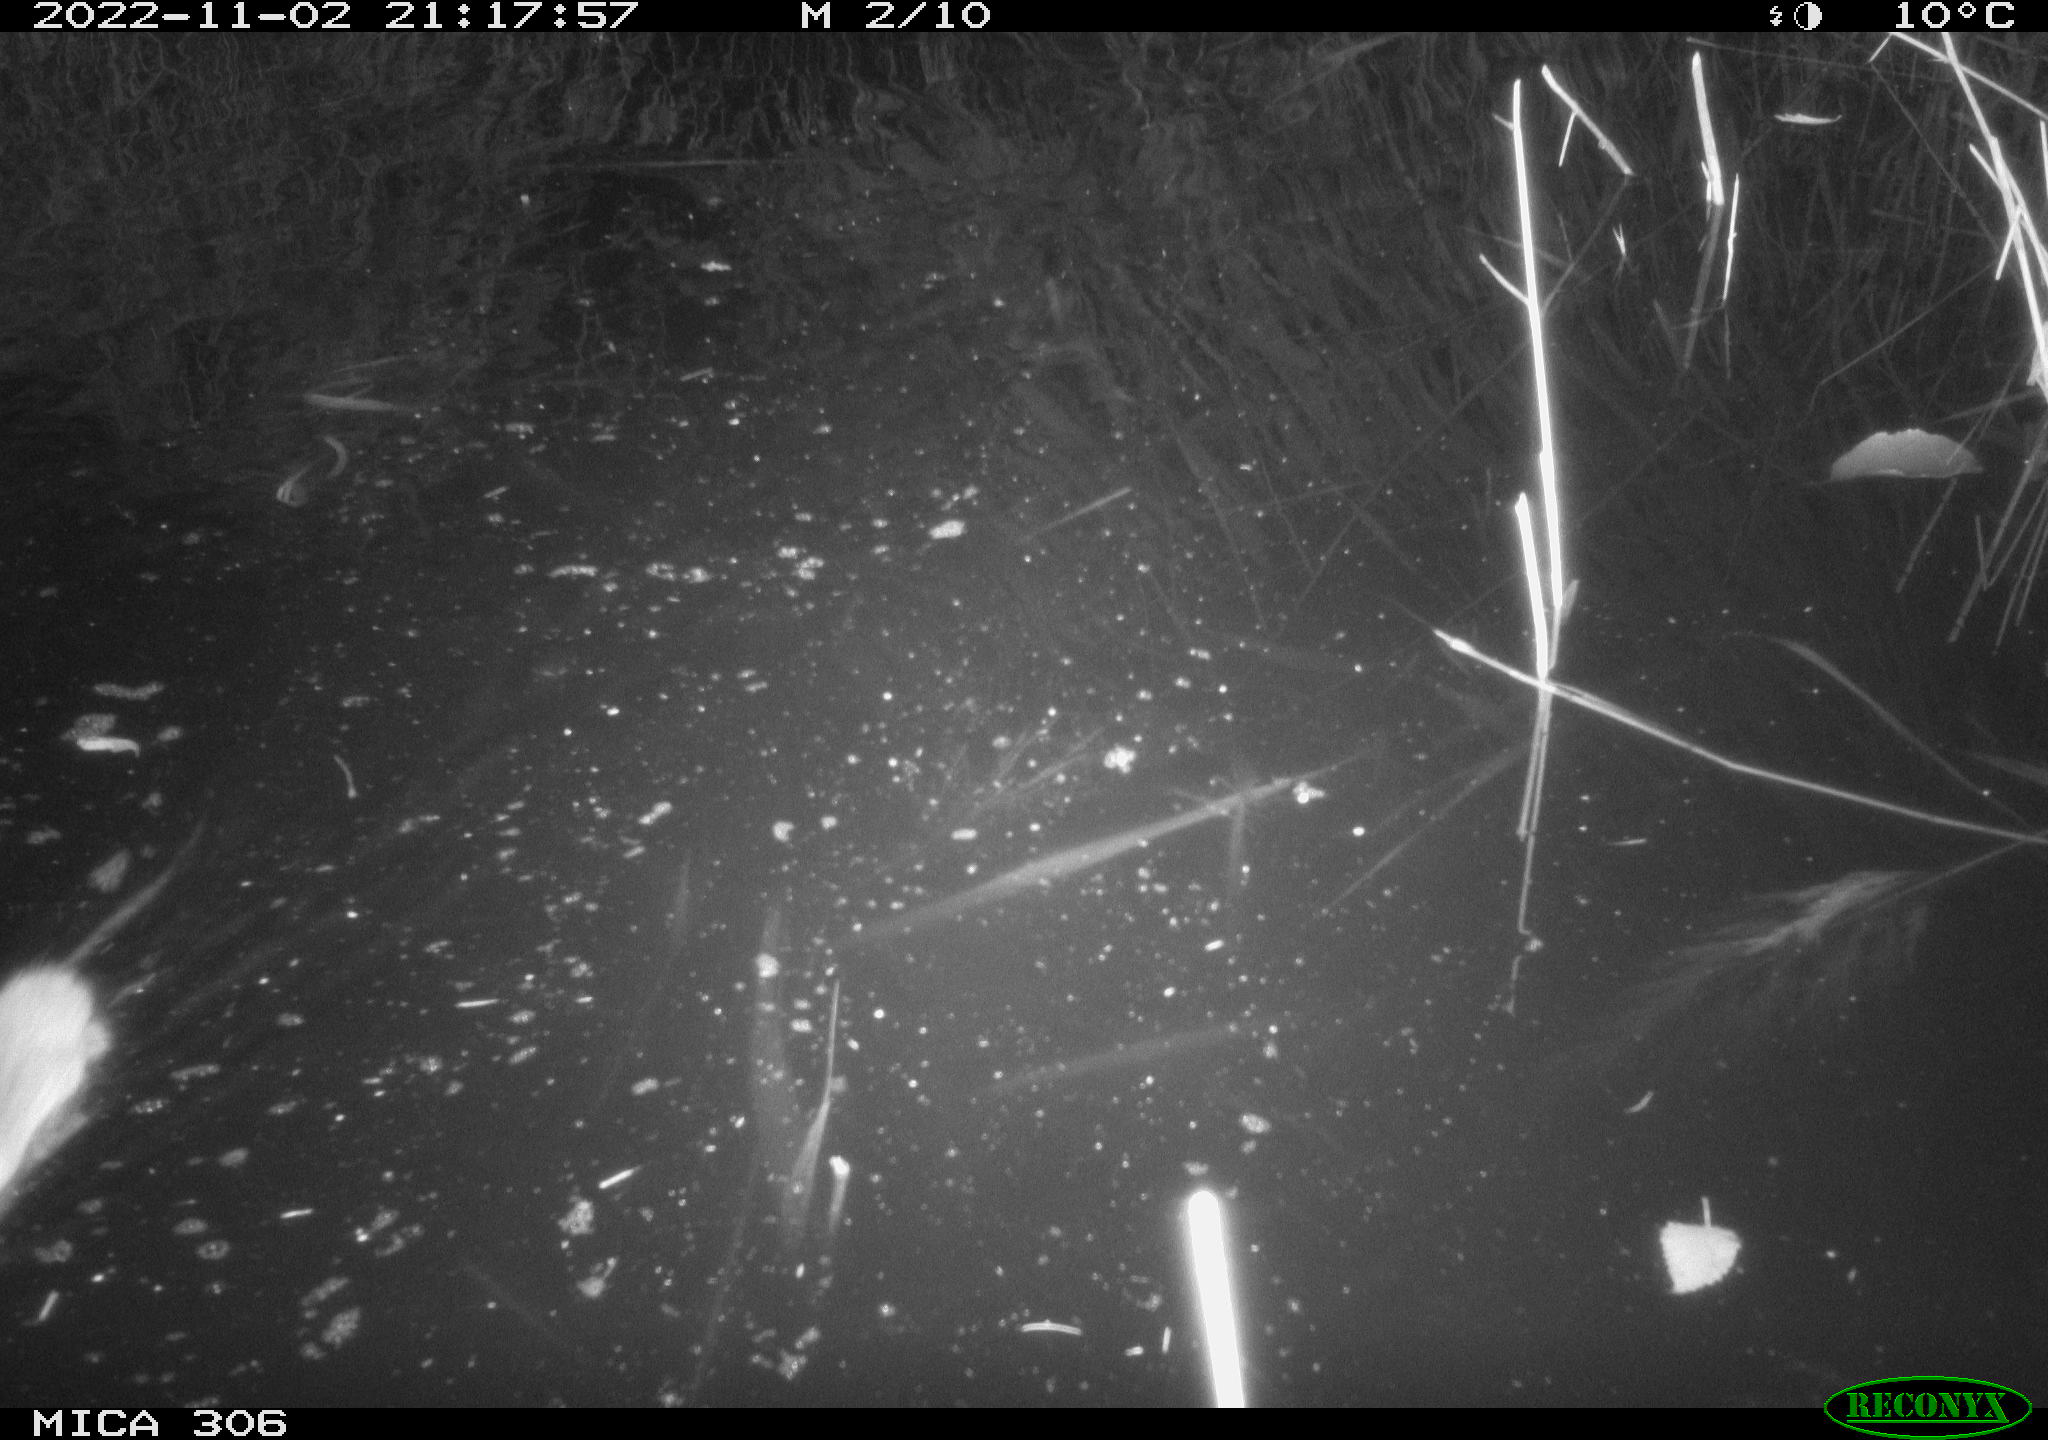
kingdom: Animalia
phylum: Chordata
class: Mammalia
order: Rodentia
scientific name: Rodentia
